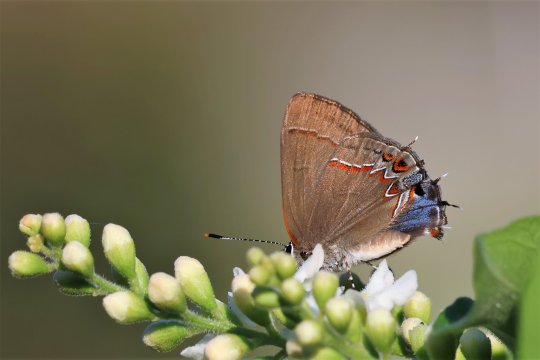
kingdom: Animalia
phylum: Arthropoda
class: Insecta
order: Lepidoptera
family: Lycaenidae
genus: Calycopis
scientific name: Calycopis isobeon
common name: Dusky-blue Groundstreak
